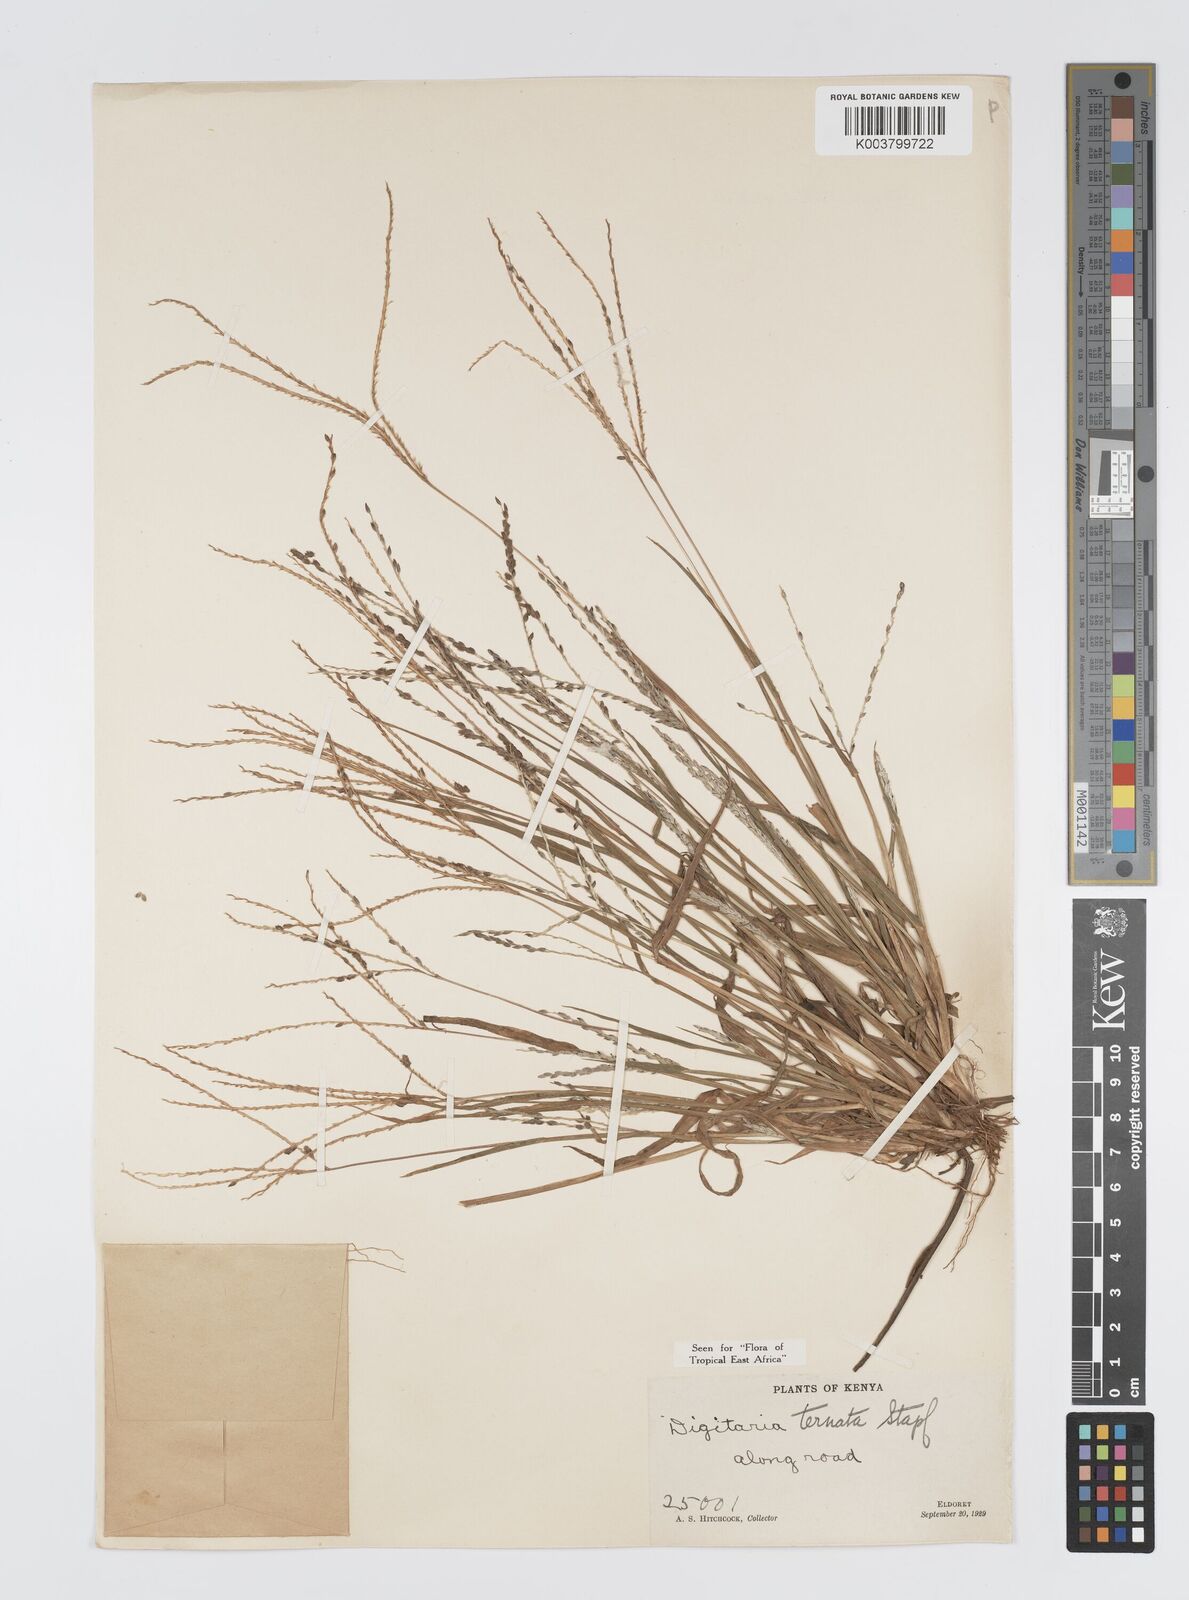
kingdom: Plantae
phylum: Tracheophyta
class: Liliopsida
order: Poales
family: Poaceae
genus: Digitaria
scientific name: Digitaria ternata
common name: Blackseed crabgrass
